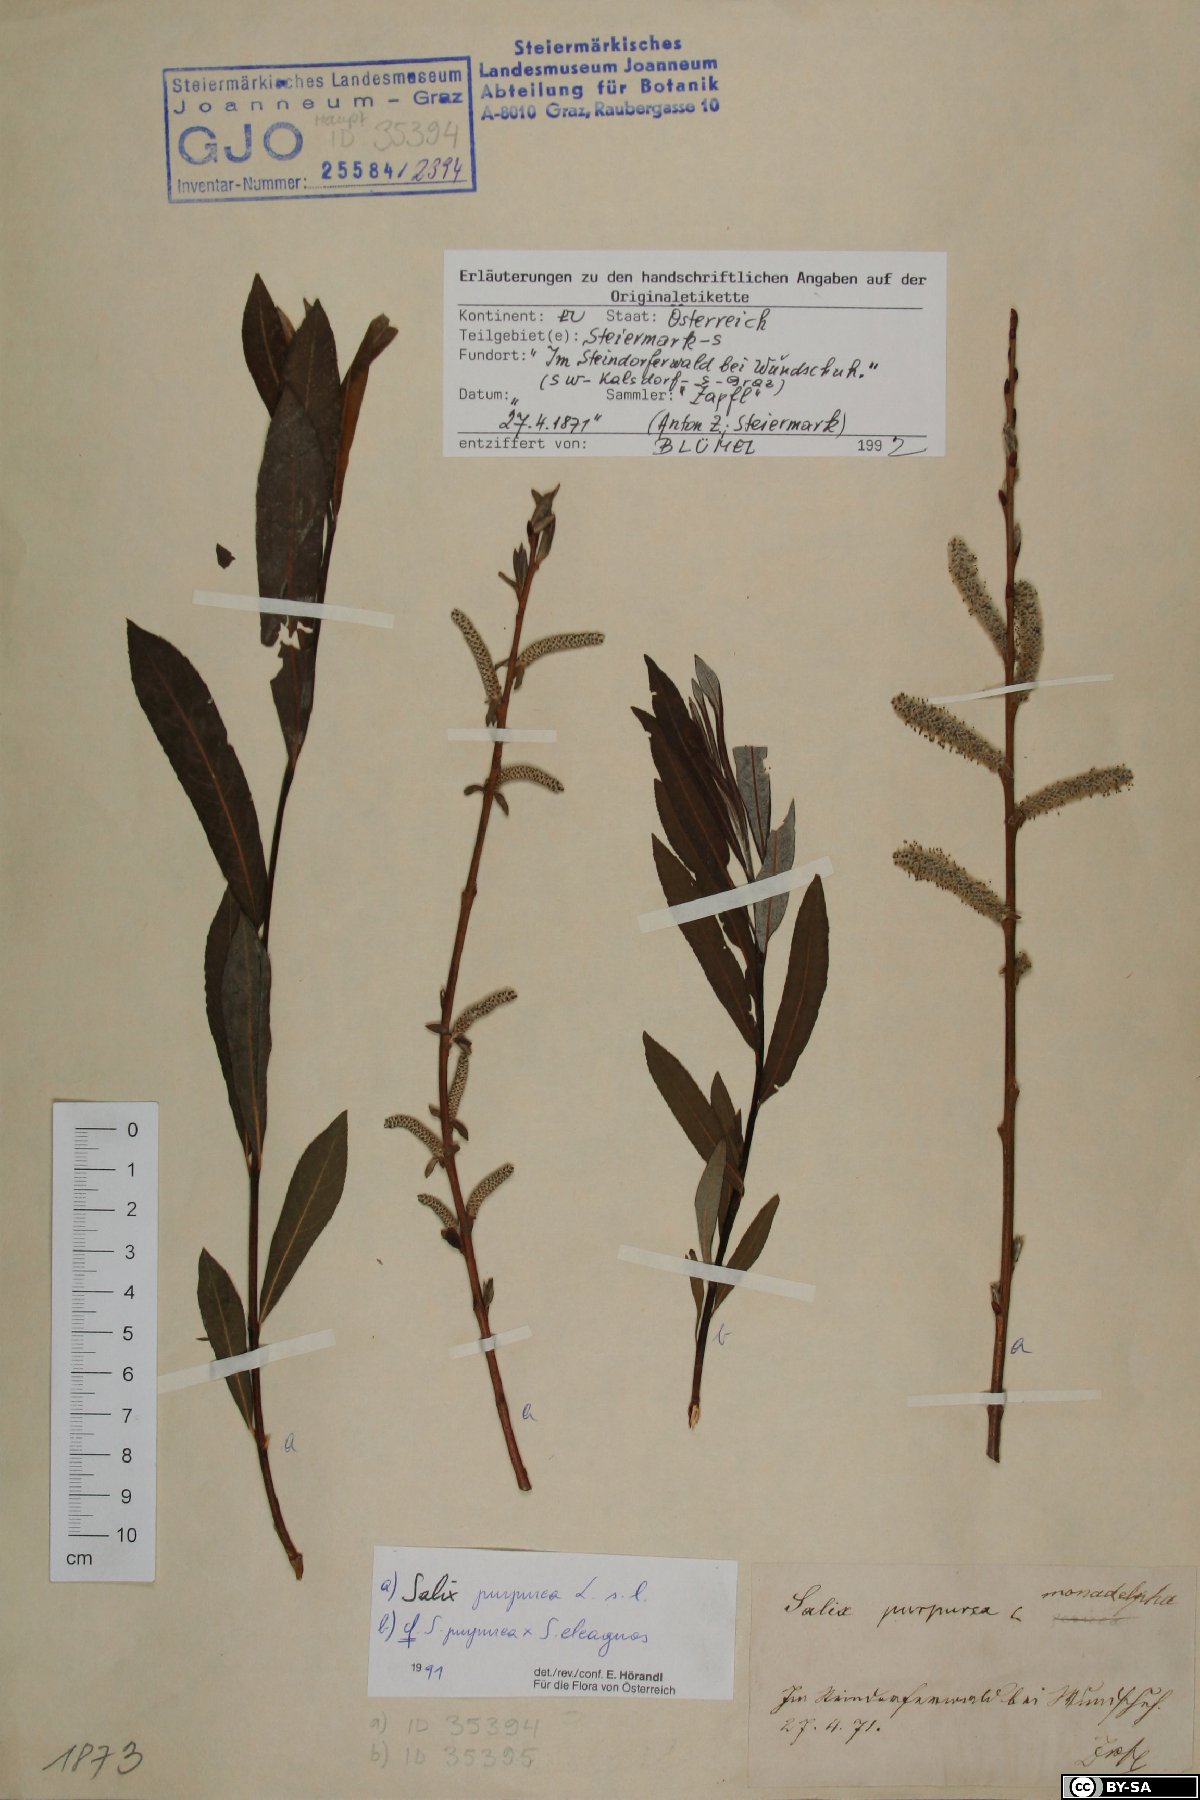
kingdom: Plantae
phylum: Tracheophyta
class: Magnoliopsida
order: Malpighiales
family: Salicaceae
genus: Salix
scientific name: Salix purpurea
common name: Purple willow
